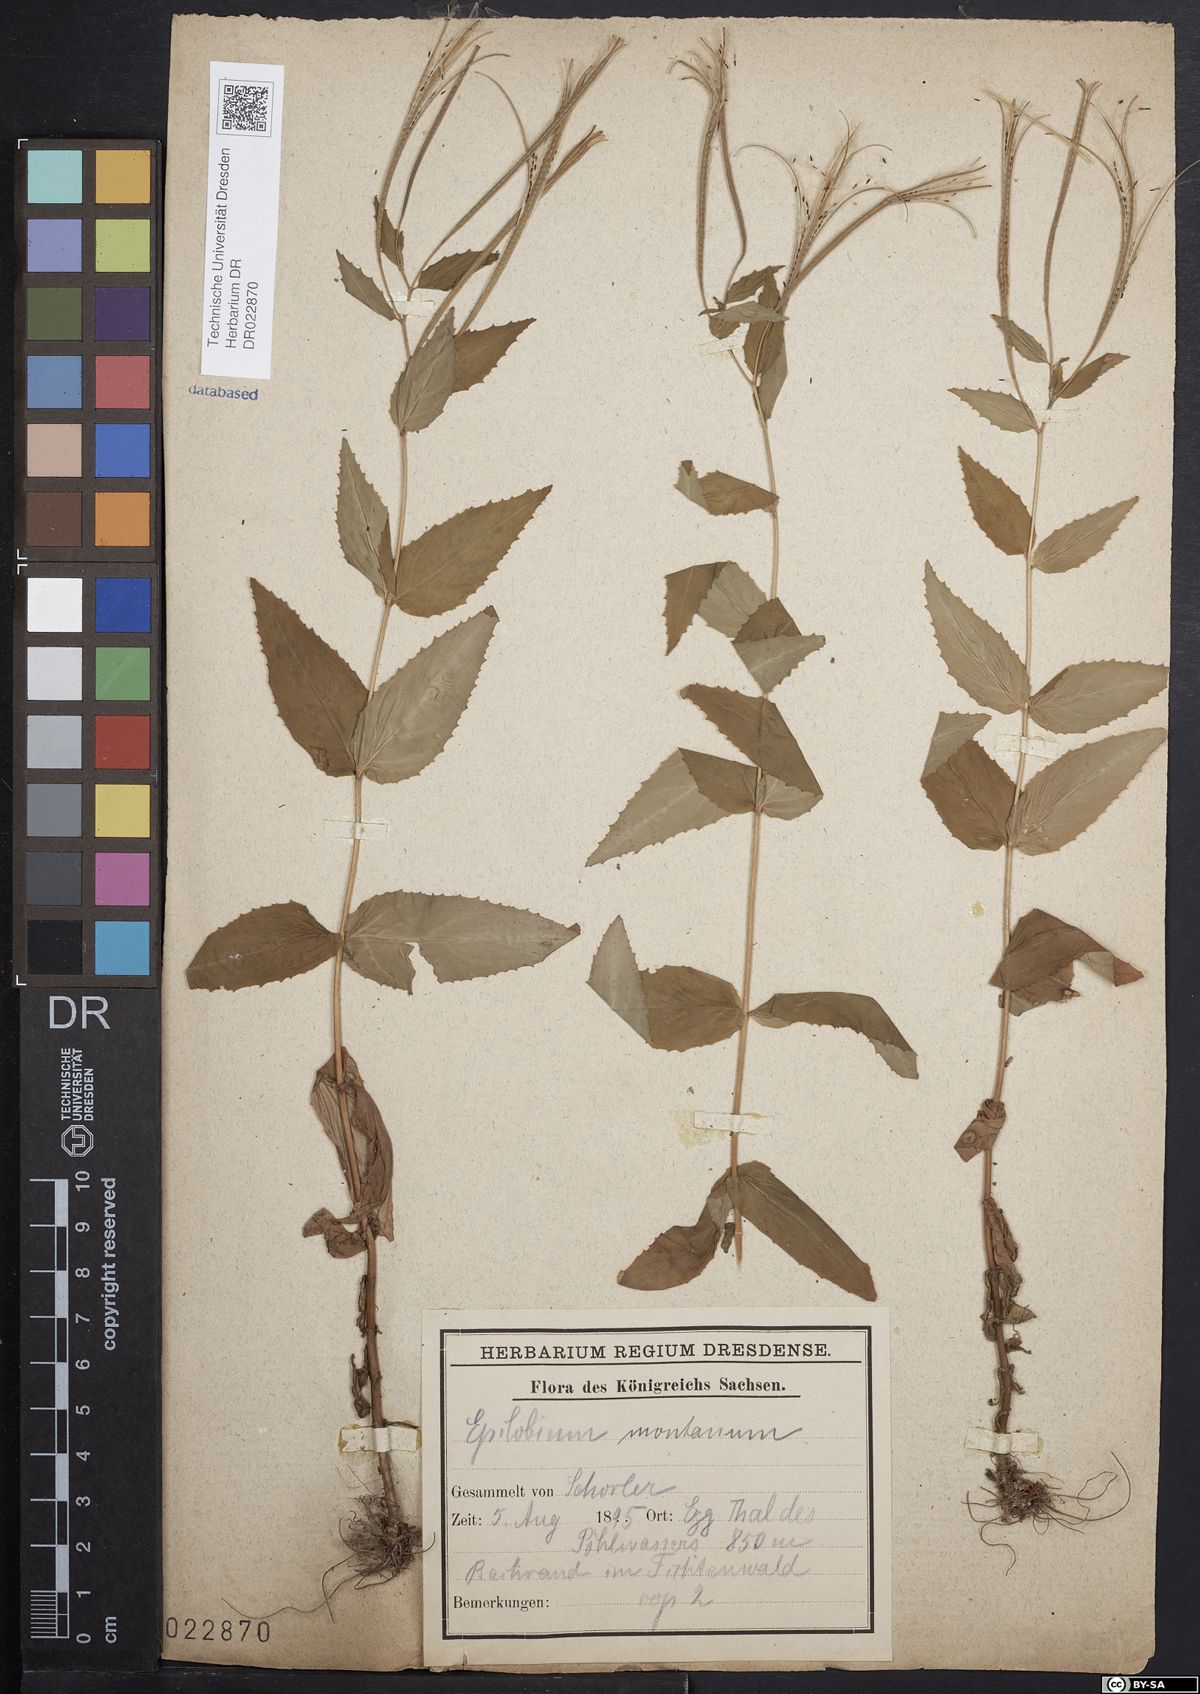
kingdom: Plantae
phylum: Tracheophyta
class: Magnoliopsida
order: Myrtales
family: Onagraceae
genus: Epilobium
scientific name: Epilobium montanum
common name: Broad-leaved willowherb
